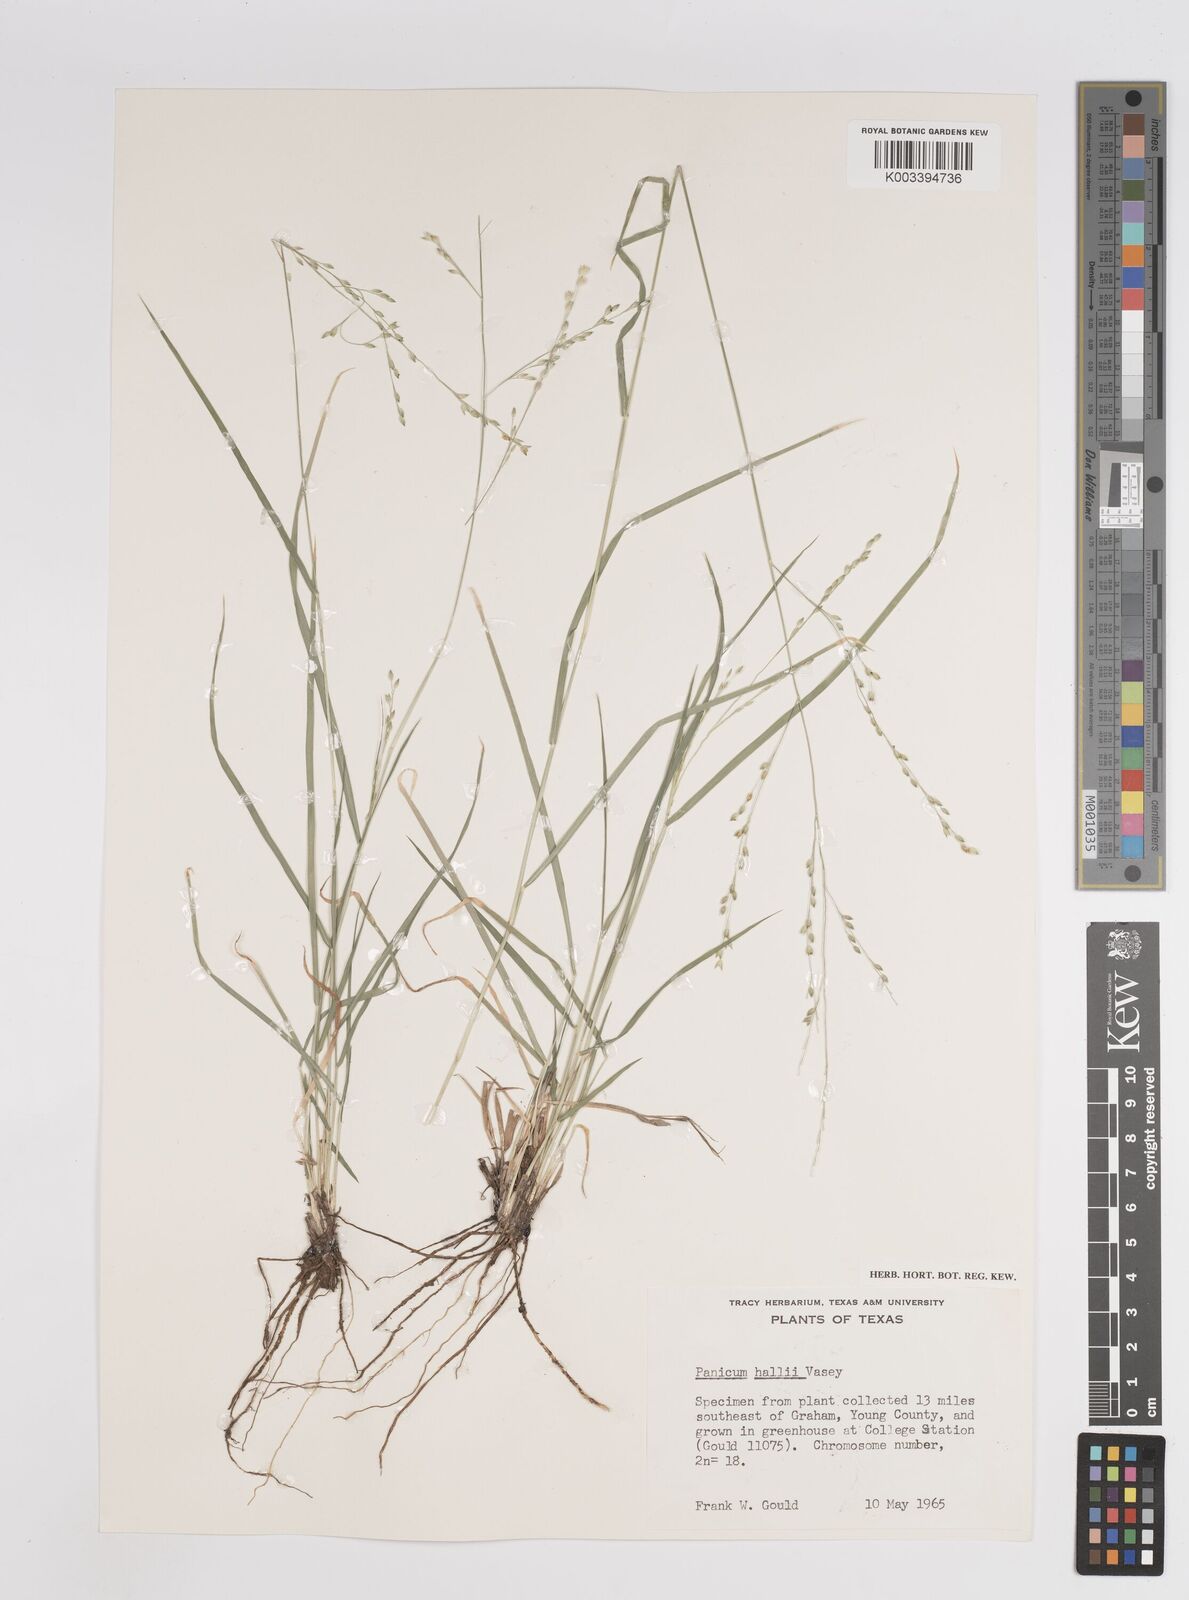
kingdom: Plantae
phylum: Tracheophyta
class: Liliopsida
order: Poales
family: Poaceae
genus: Panicum
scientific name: Panicum hallii
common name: Hall's witchgrass
